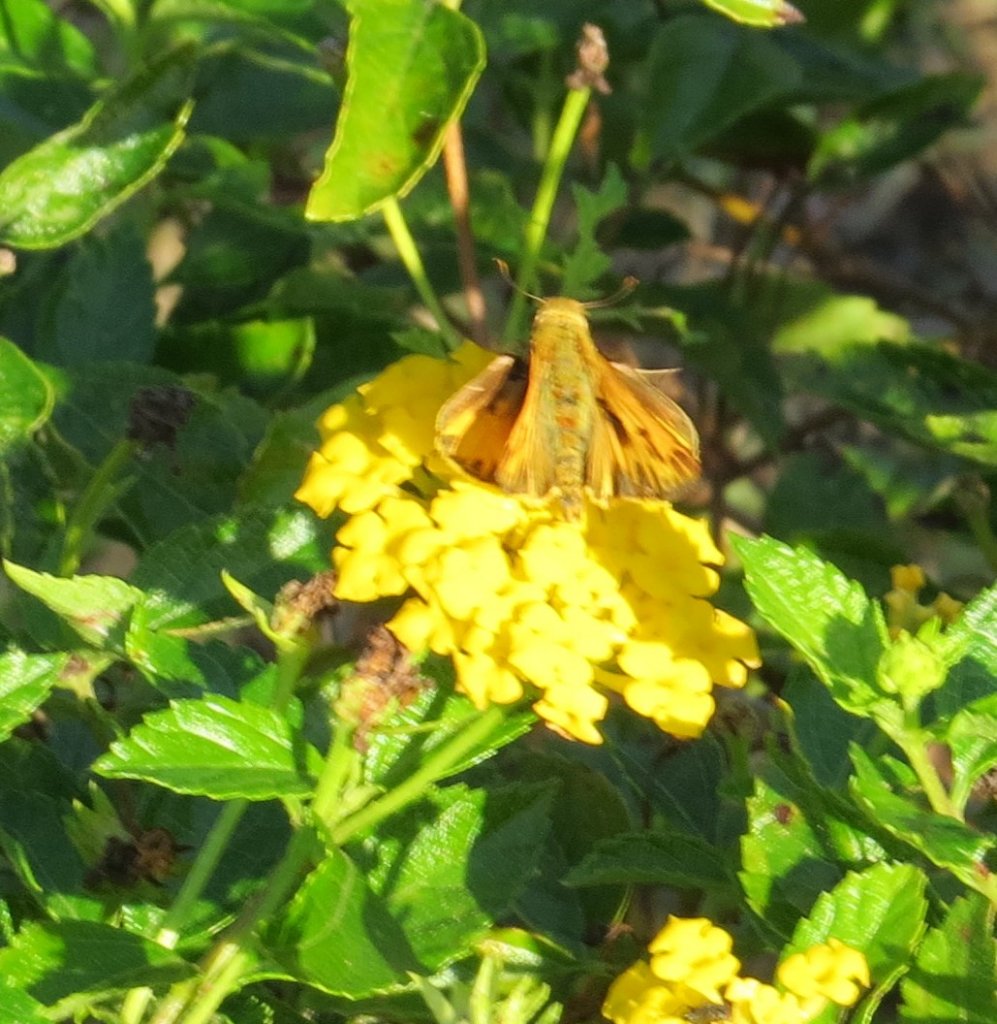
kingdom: Animalia
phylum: Arthropoda
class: Insecta
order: Lepidoptera
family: Hesperiidae
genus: Hylephila
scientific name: Hylephila phyleus
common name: Fiery Skipper
